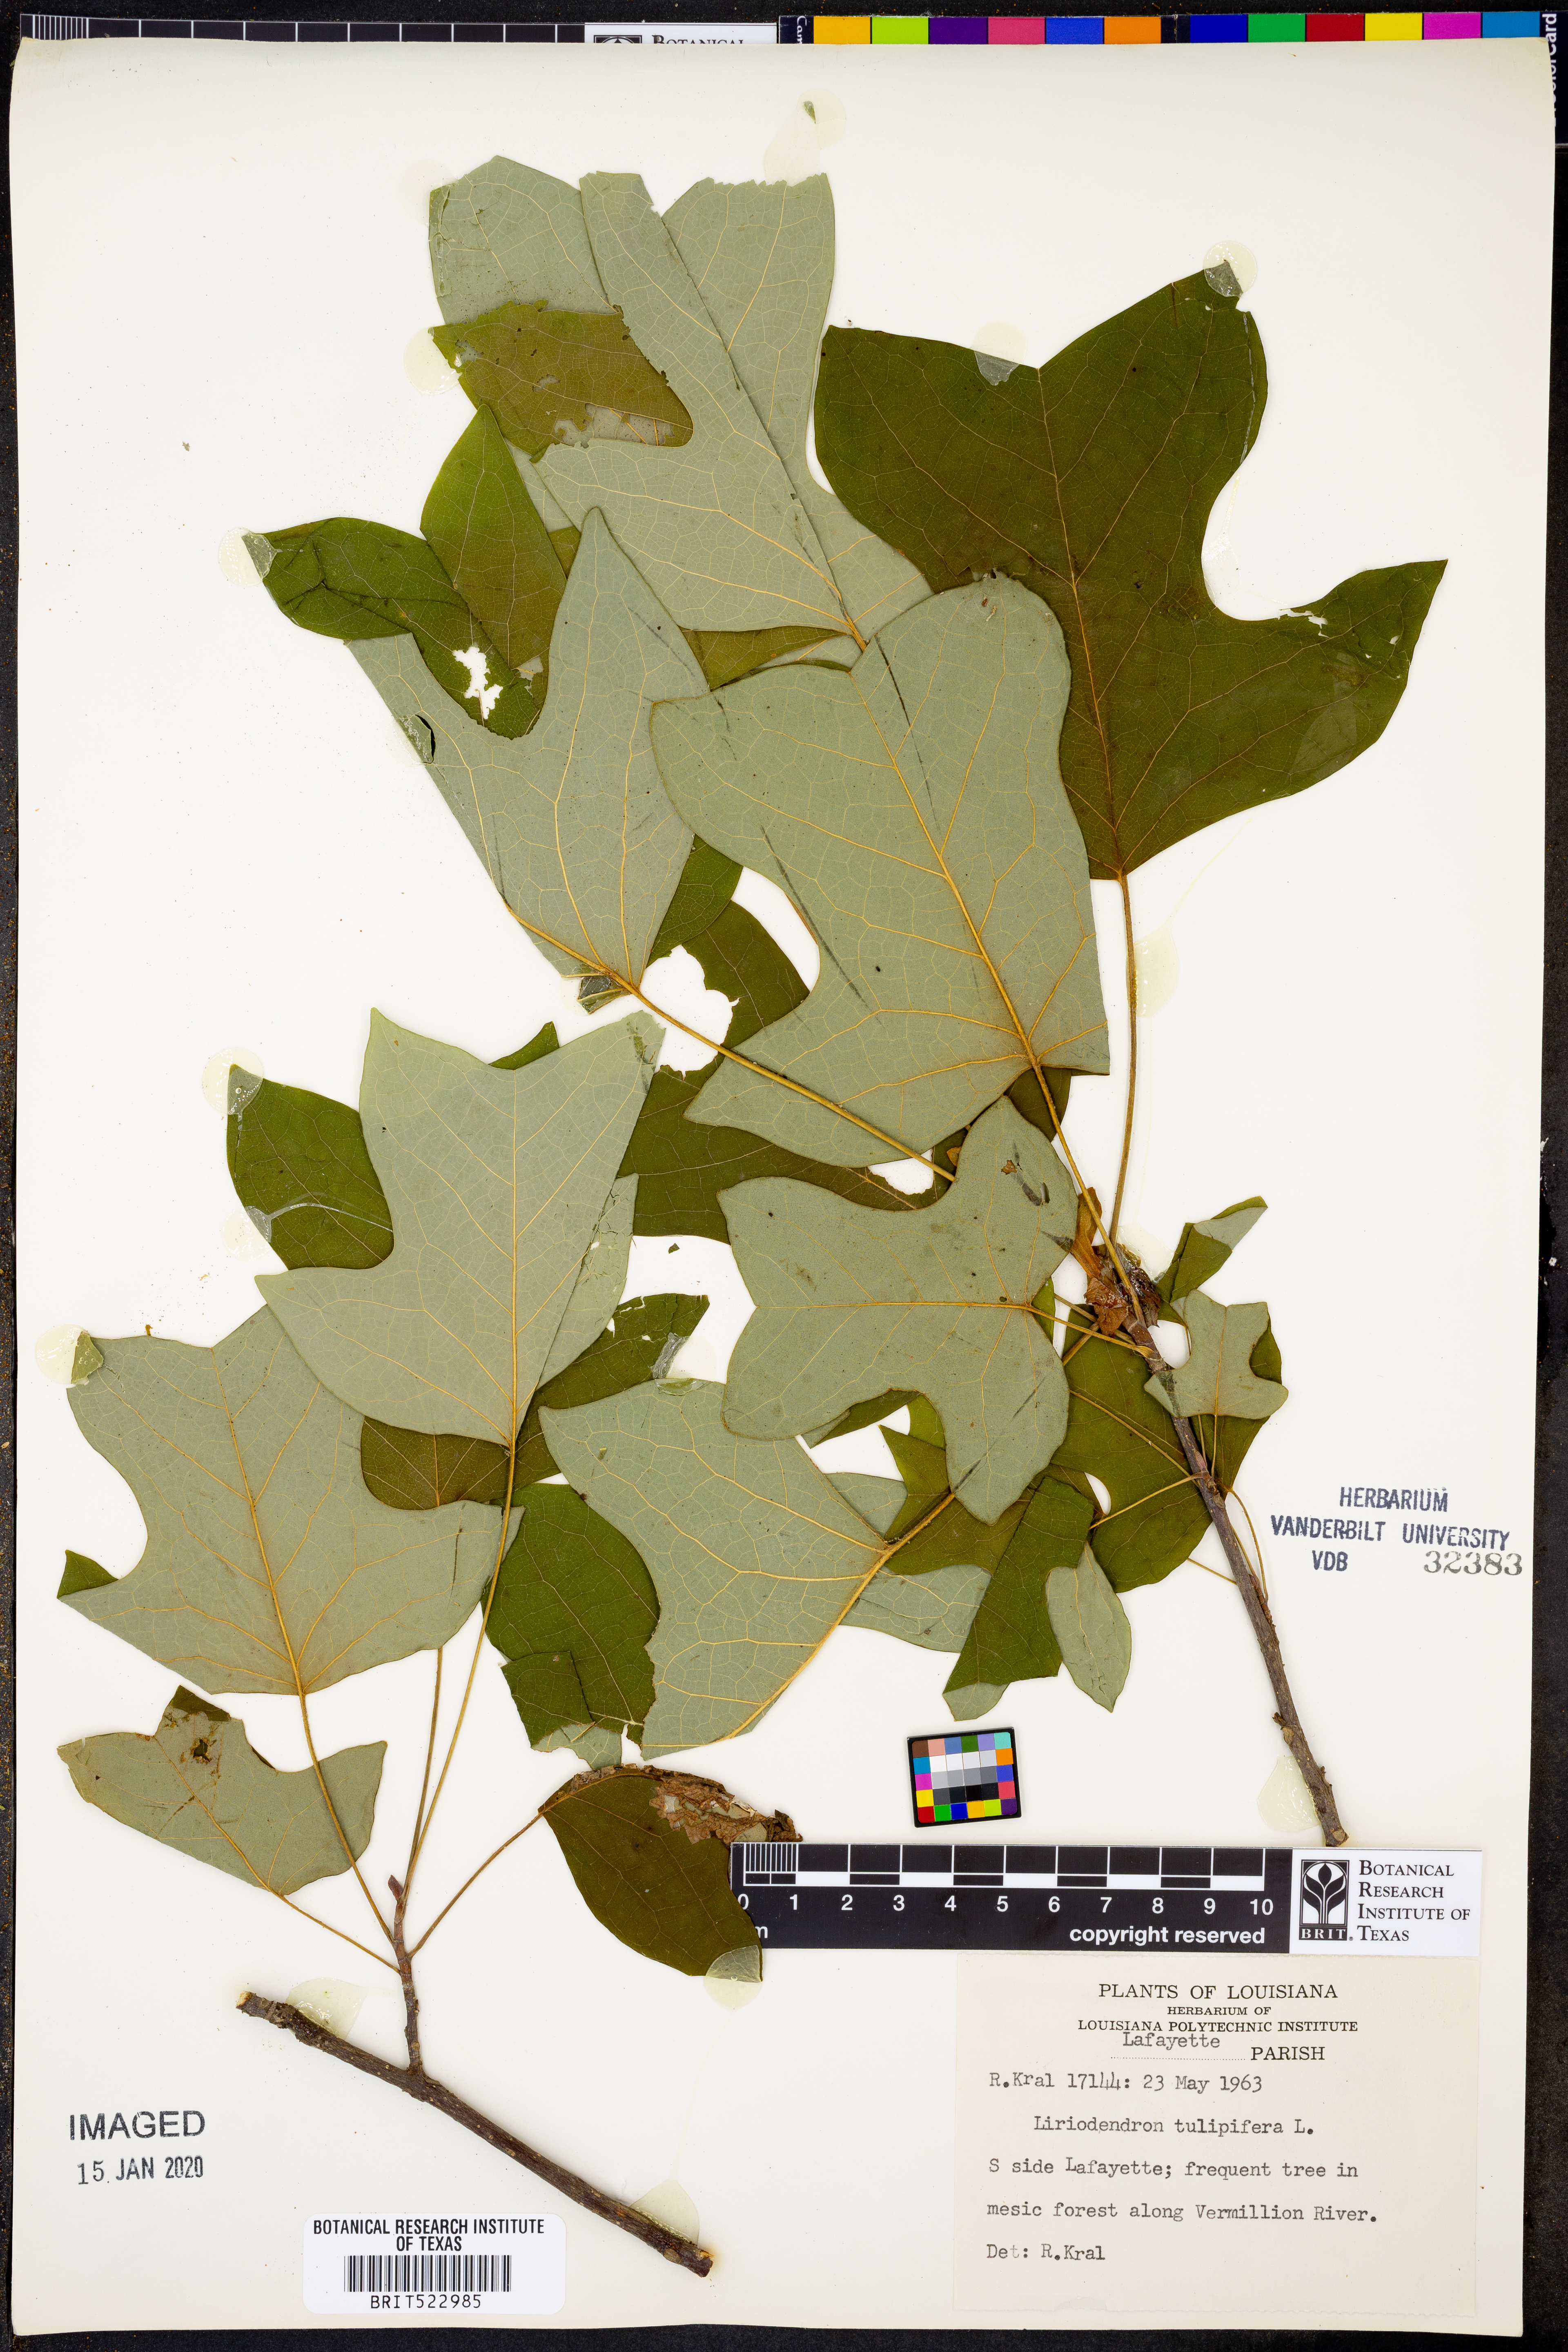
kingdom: Plantae
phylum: Tracheophyta
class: Magnoliopsida
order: Magnoliales
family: Magnoliaceae
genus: Liriodendron
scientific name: Liriodendron tulipifera
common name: Tulip tree
